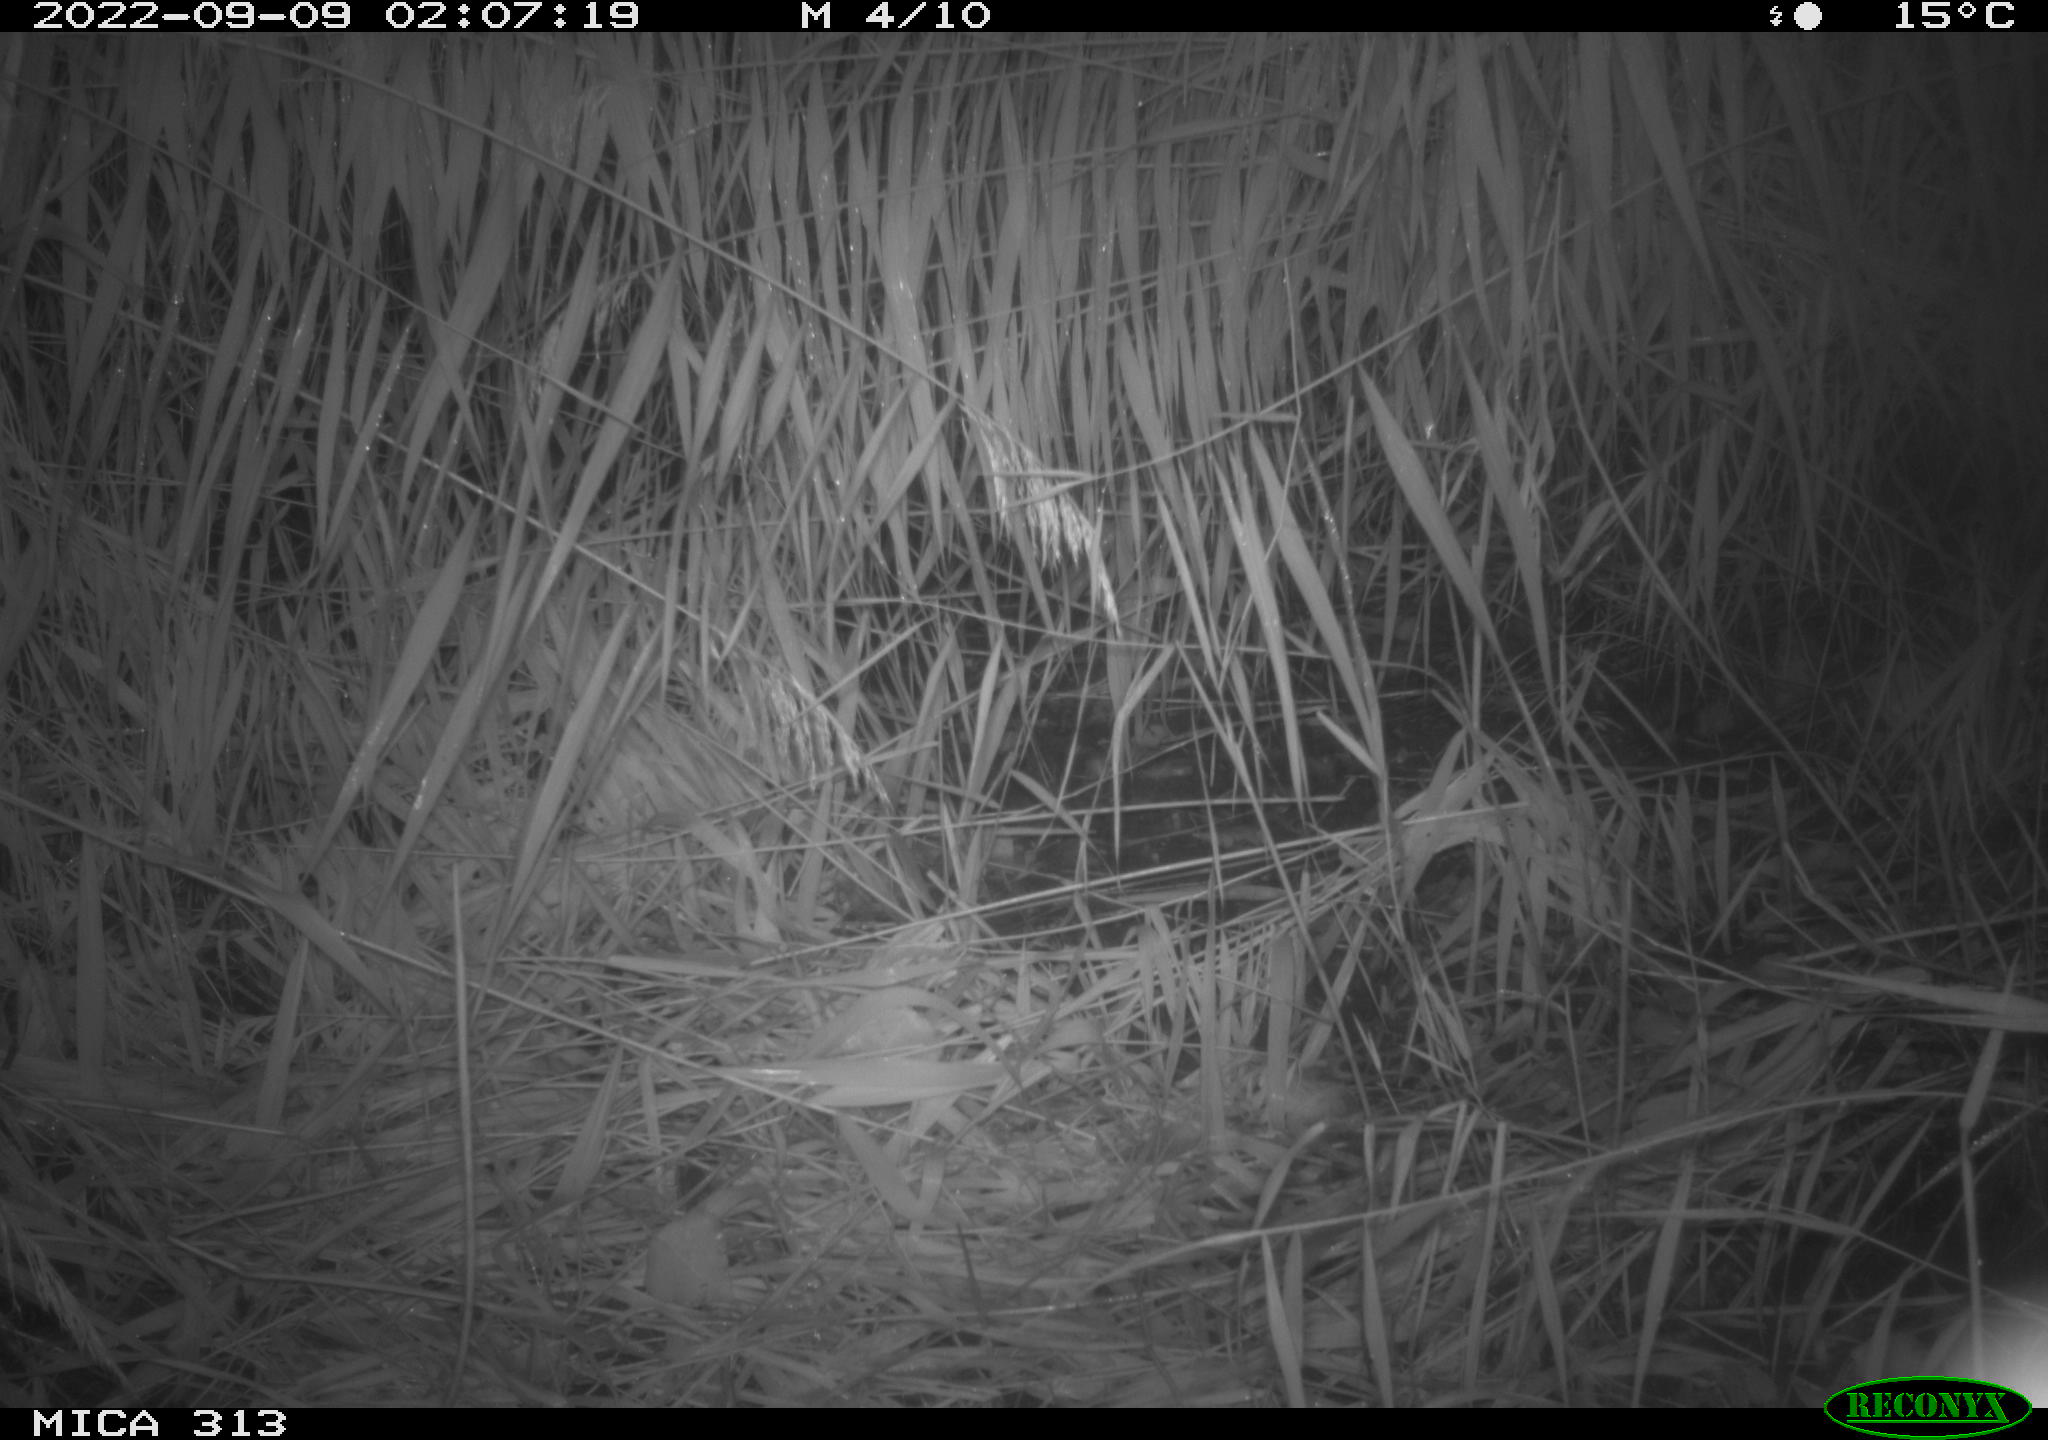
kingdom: Animalia
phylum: Chordata
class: Mammalia
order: Rodentia
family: Muridae
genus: Rattus
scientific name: Rattus norvegicus
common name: Brown rat
